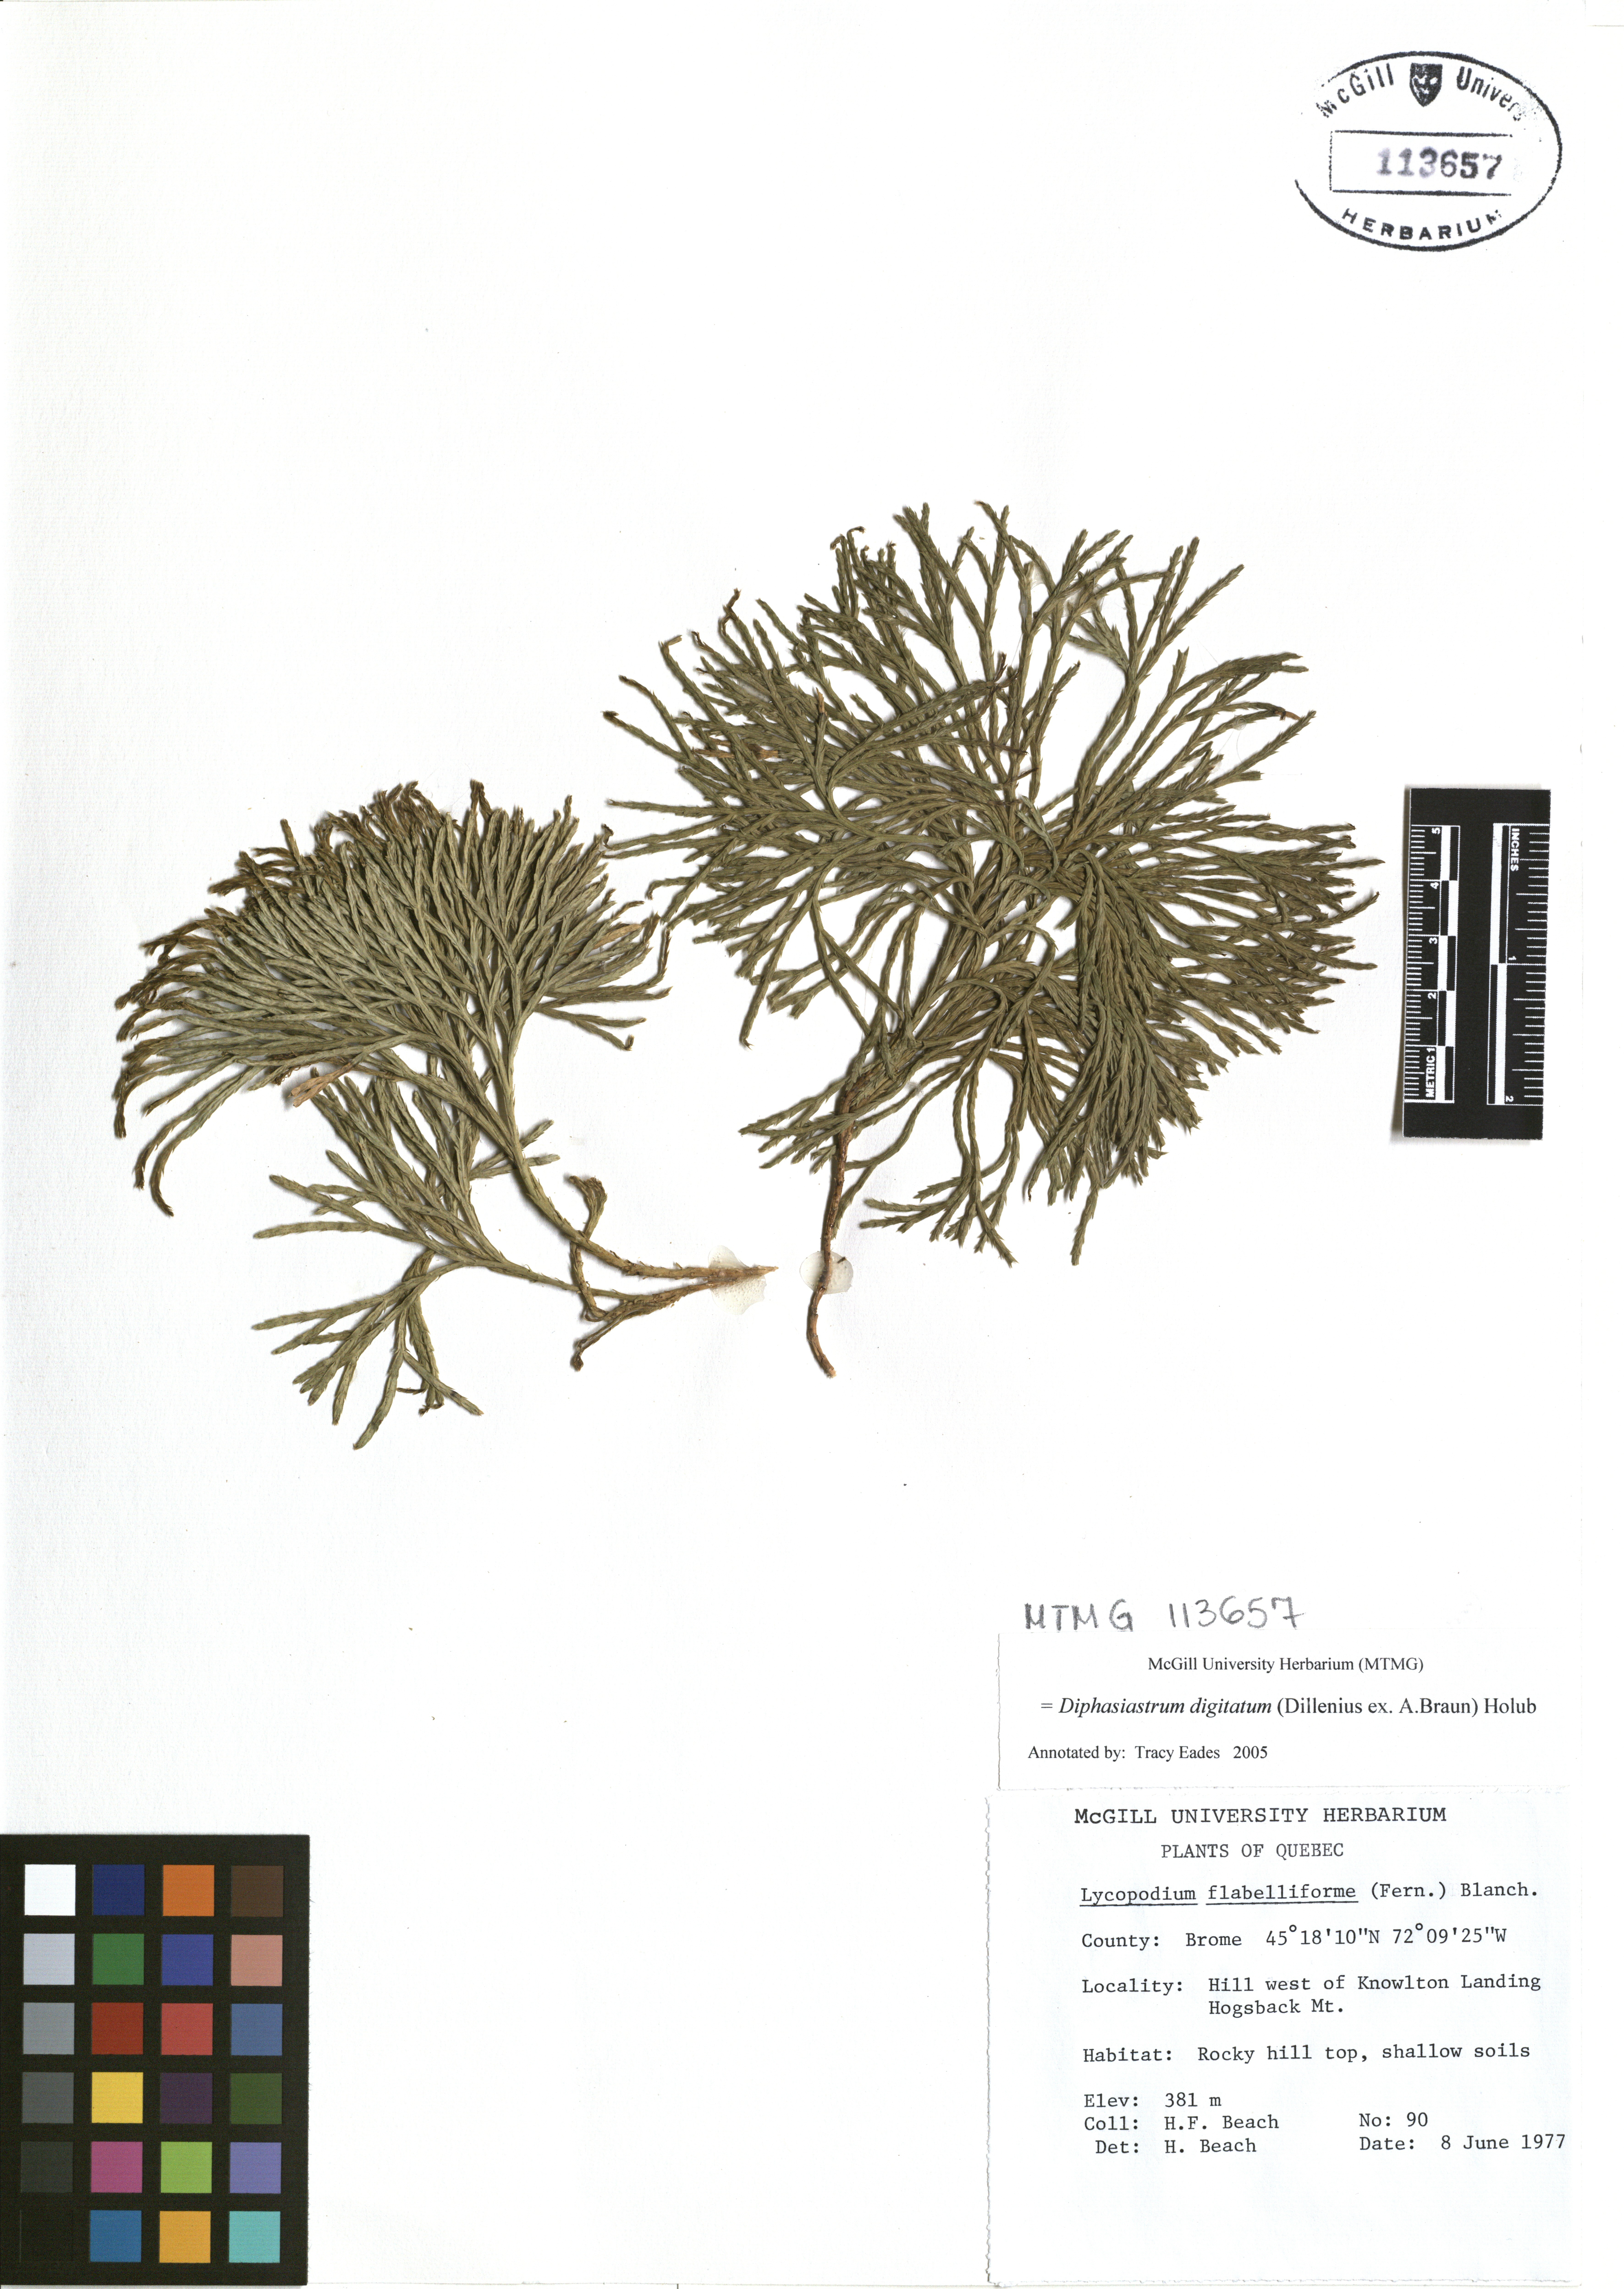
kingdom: Plantae
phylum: Tracheophyta
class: Lycopodiopsida
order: Lycopodiales
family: Lycopodiaceae
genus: Diphasiastrum
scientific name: Diphasiastrum digitatum
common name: Southern running-pine
